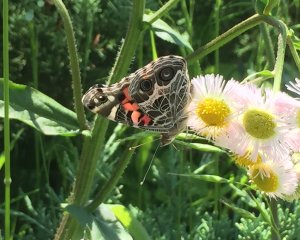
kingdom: Animalia
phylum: Arthropoda
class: Insecta
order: Lepidoptera
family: Nymphalidae
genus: Vanessa
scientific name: Vanessa virginiensis
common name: American Lady
